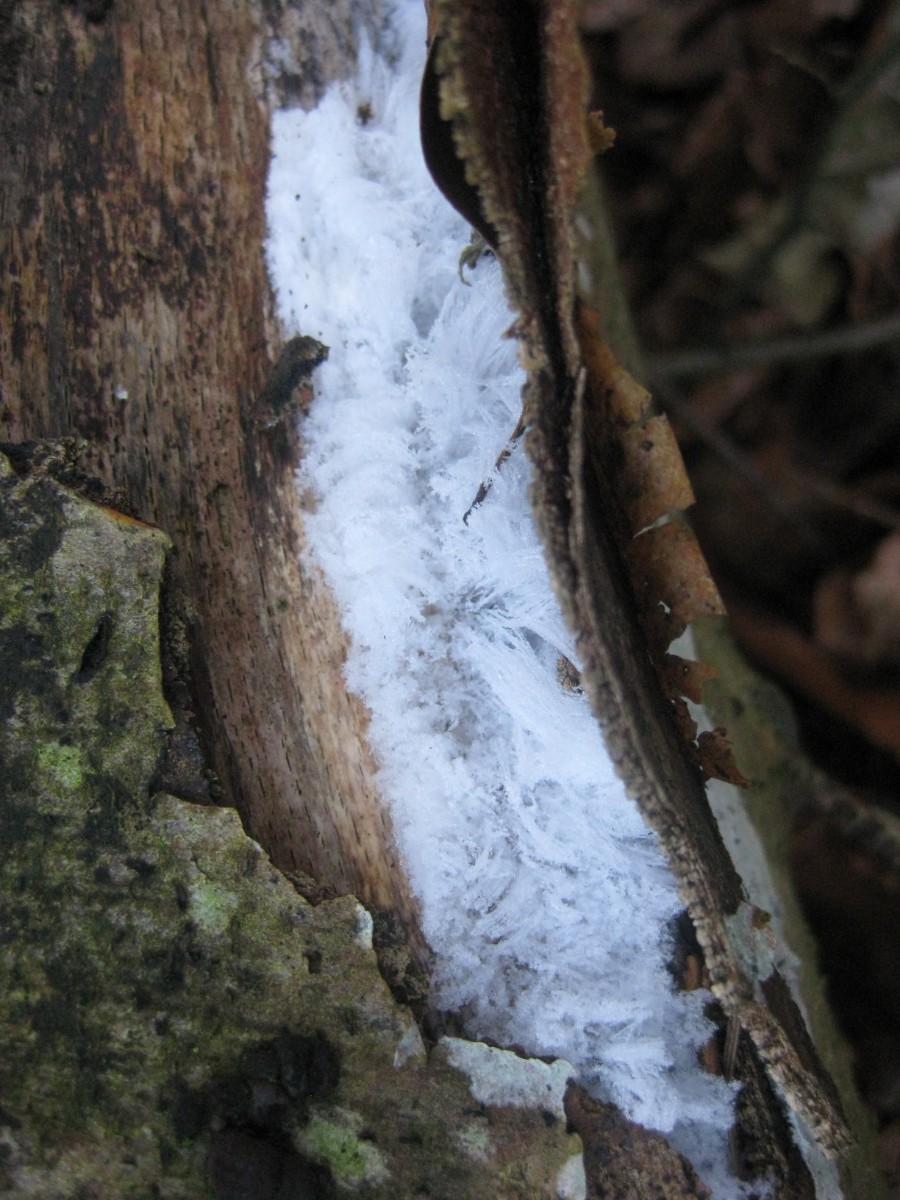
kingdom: Fungi
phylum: Basidiomycota
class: Tremellomycetes
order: Tremellales
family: Exidiaceae
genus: Exidiopsis
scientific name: Exidiopsis effusa
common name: smuk bævrehinde
